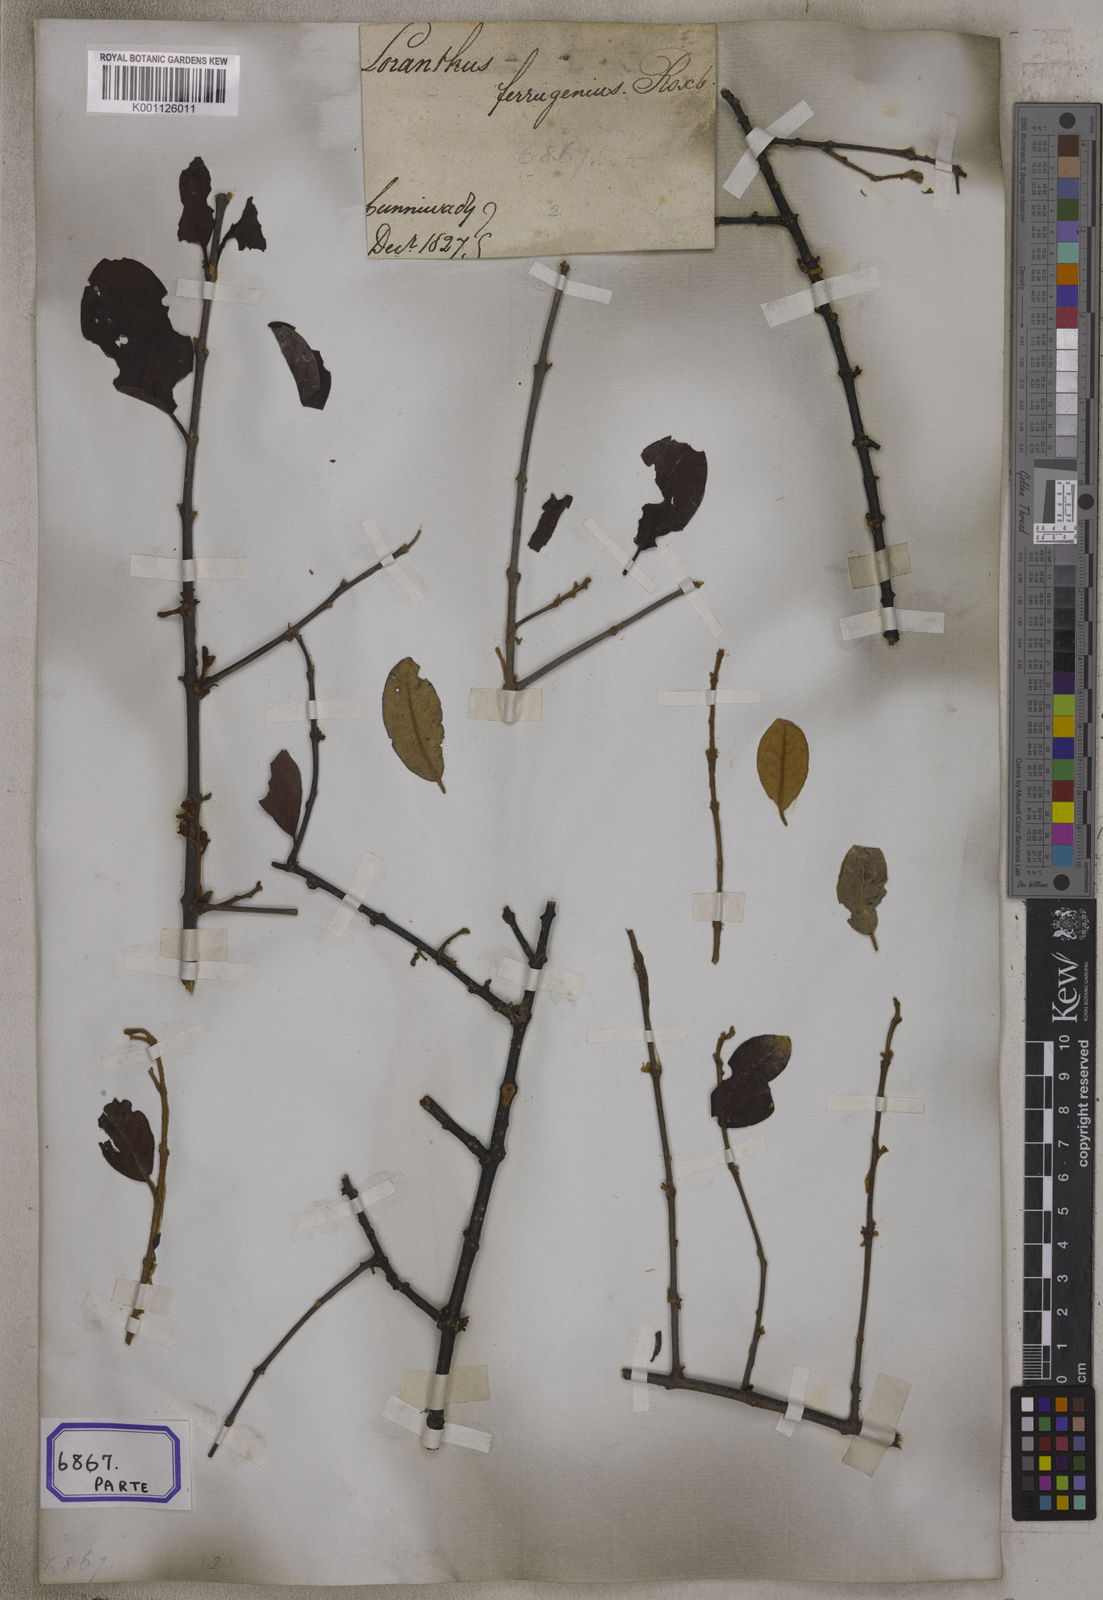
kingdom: Plantae
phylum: Tracheophyta
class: Magnoliopsida
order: Santalales
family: Loranthaceae
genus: Scurrula
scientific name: Scurrula parasitica
